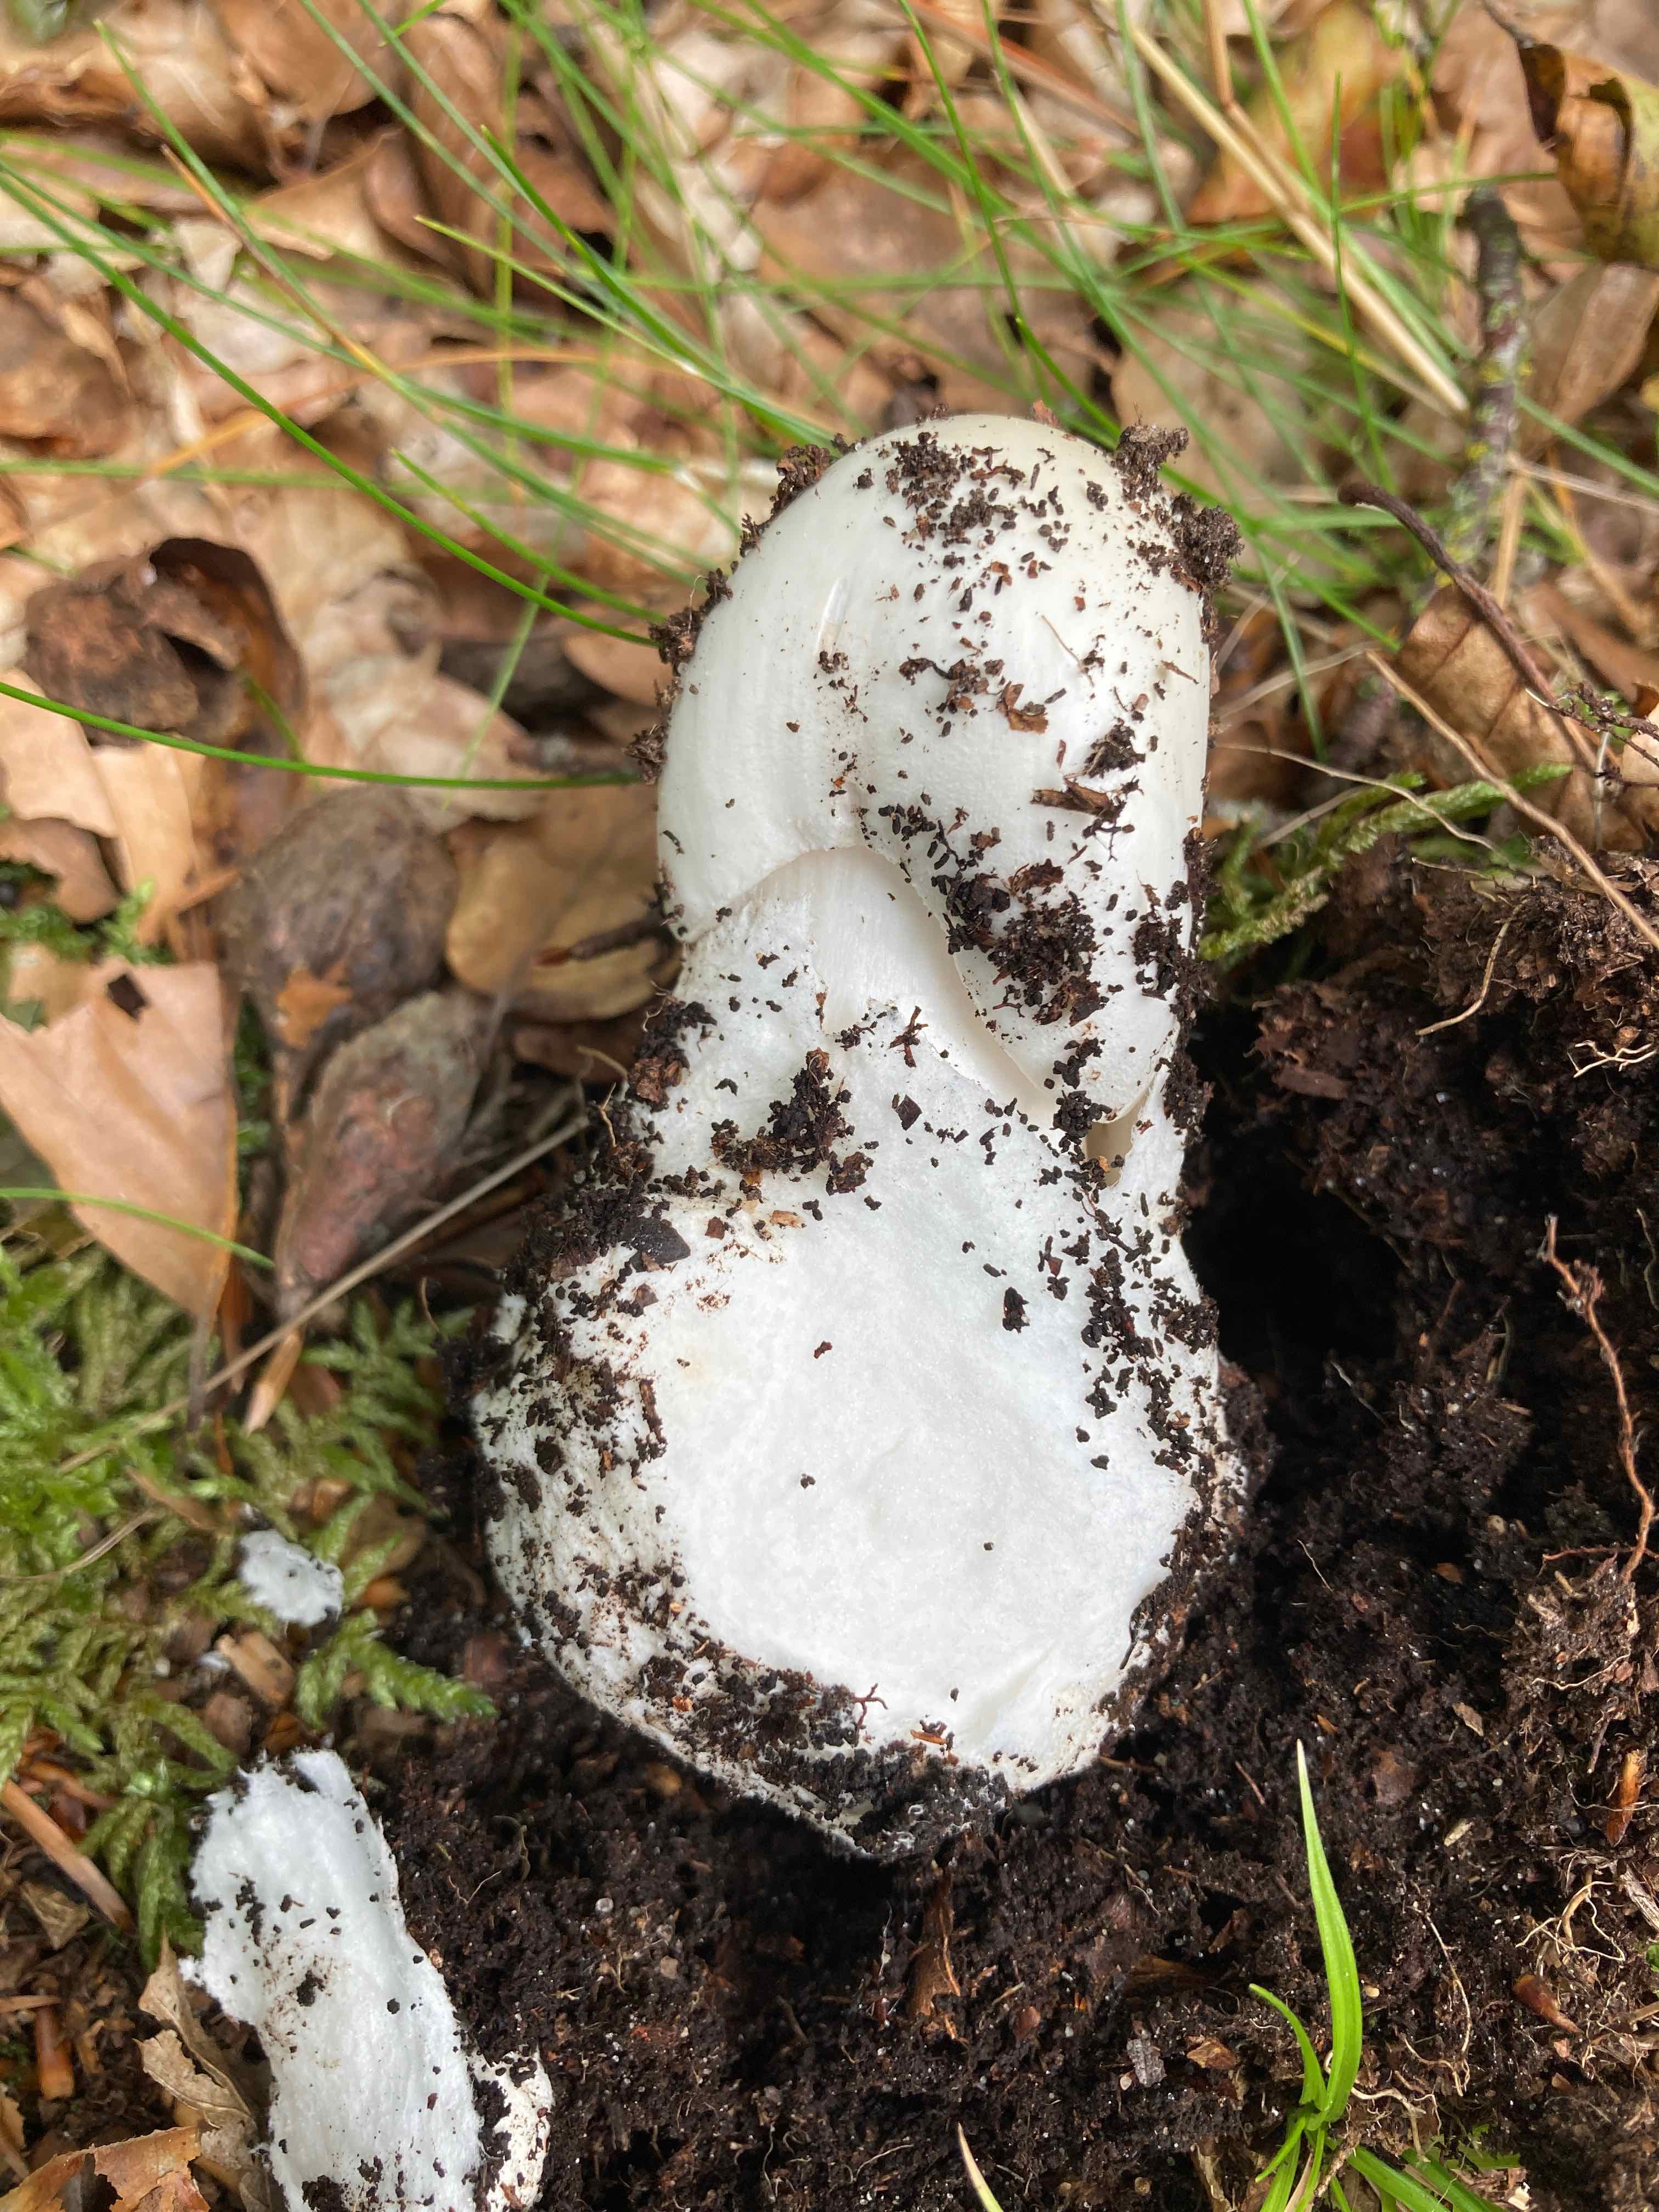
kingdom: Fungi
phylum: Basidiomycota
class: Agaricomycetes
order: Agaricales
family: Amanitaceae
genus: Amanita
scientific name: Amanita virosa
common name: snehvid fluesvamp
